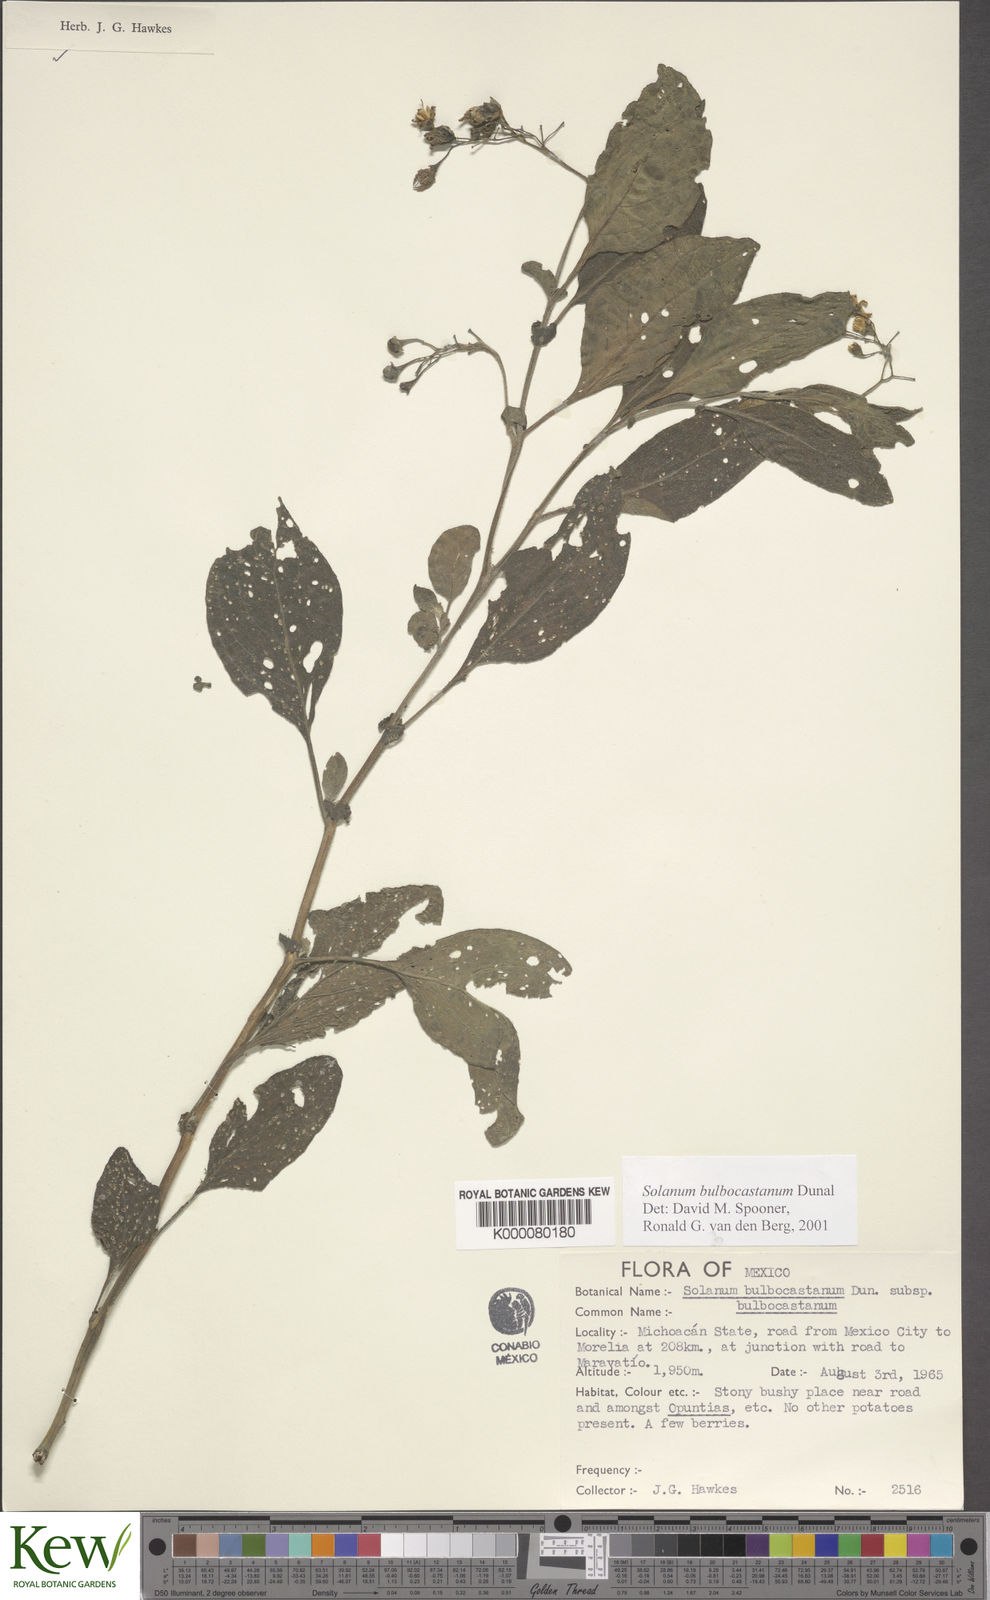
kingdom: Plantae
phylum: Tracheophyta
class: Magnoliopsida
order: Solanales
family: Solanaceae
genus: Solanum
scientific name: Solanum bulbocastanum
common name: Ornamental nightshade
